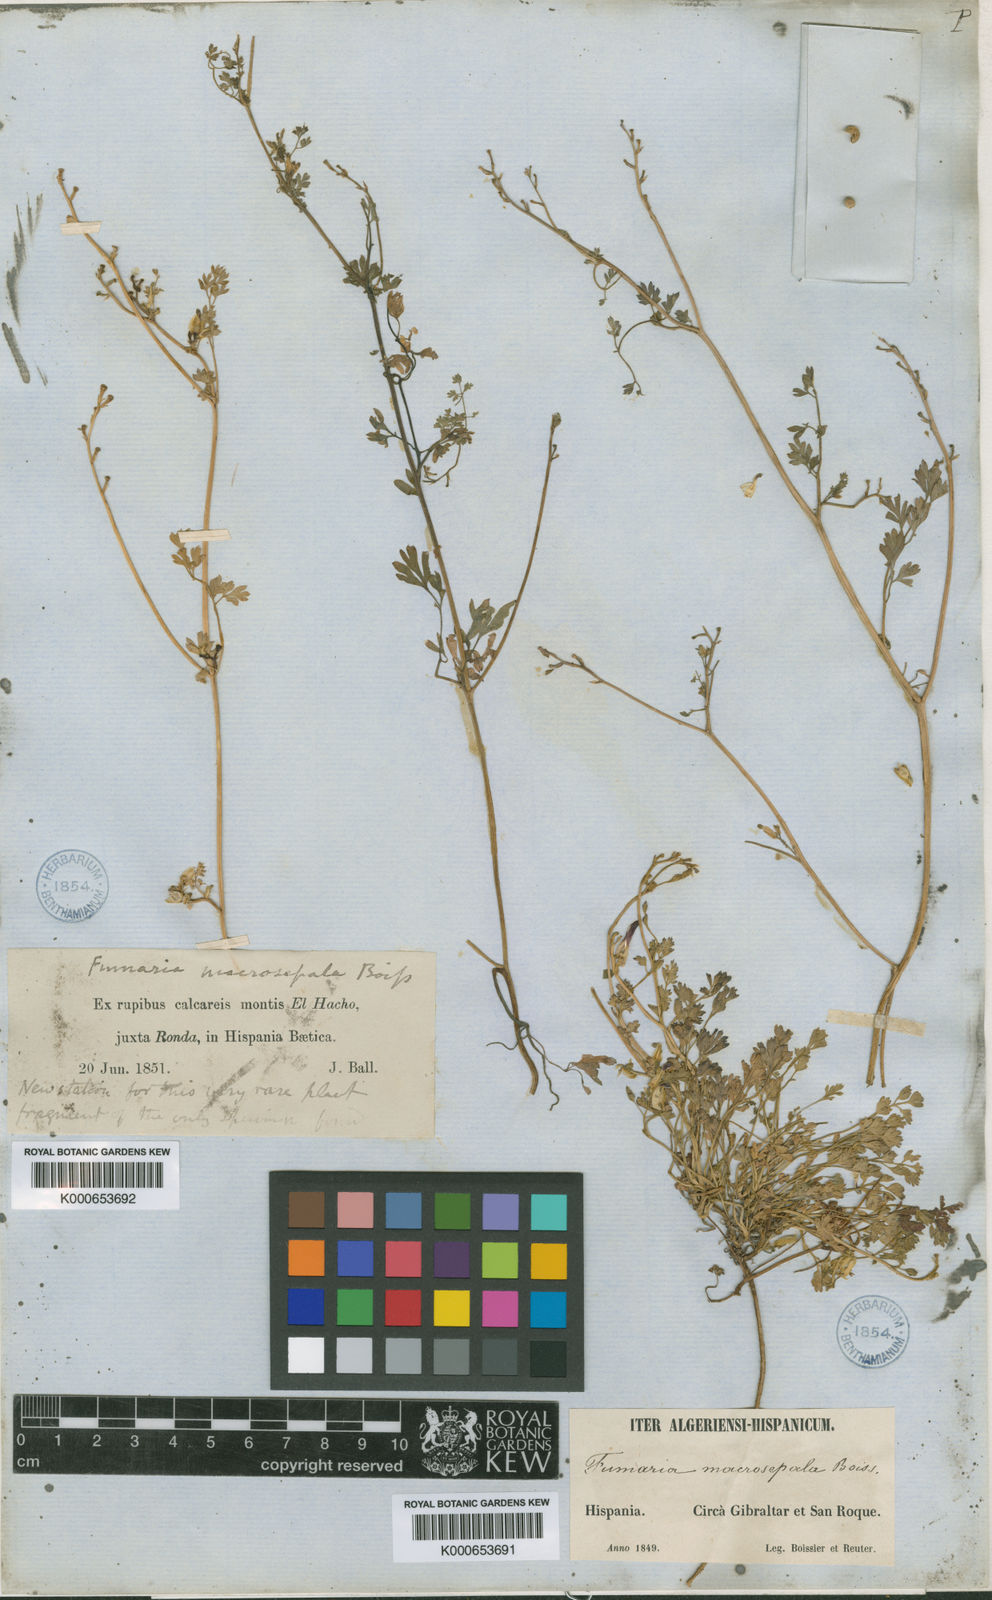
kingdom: Plantae
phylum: Tracheophyta
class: Magnoliopsida
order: Ranunculales
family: Papaveraceae
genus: Fumaria
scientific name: Fumaria macrosepala
